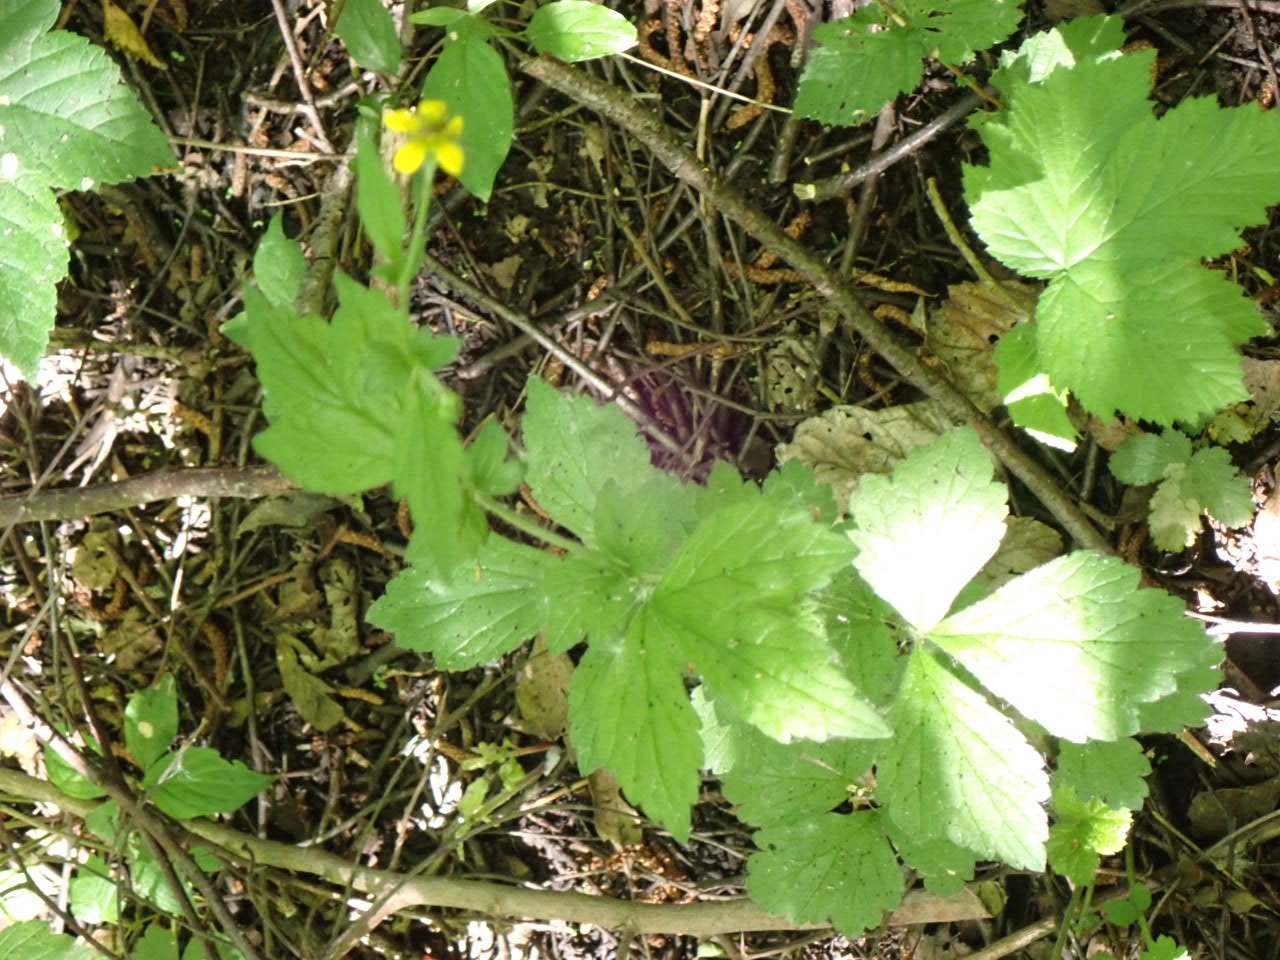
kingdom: Plantae
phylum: Tracheophyta
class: Magnoliopsida
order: Rosales
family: Rosaceae
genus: Geum
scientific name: Geum urbanum
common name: Feber-nellikerod
